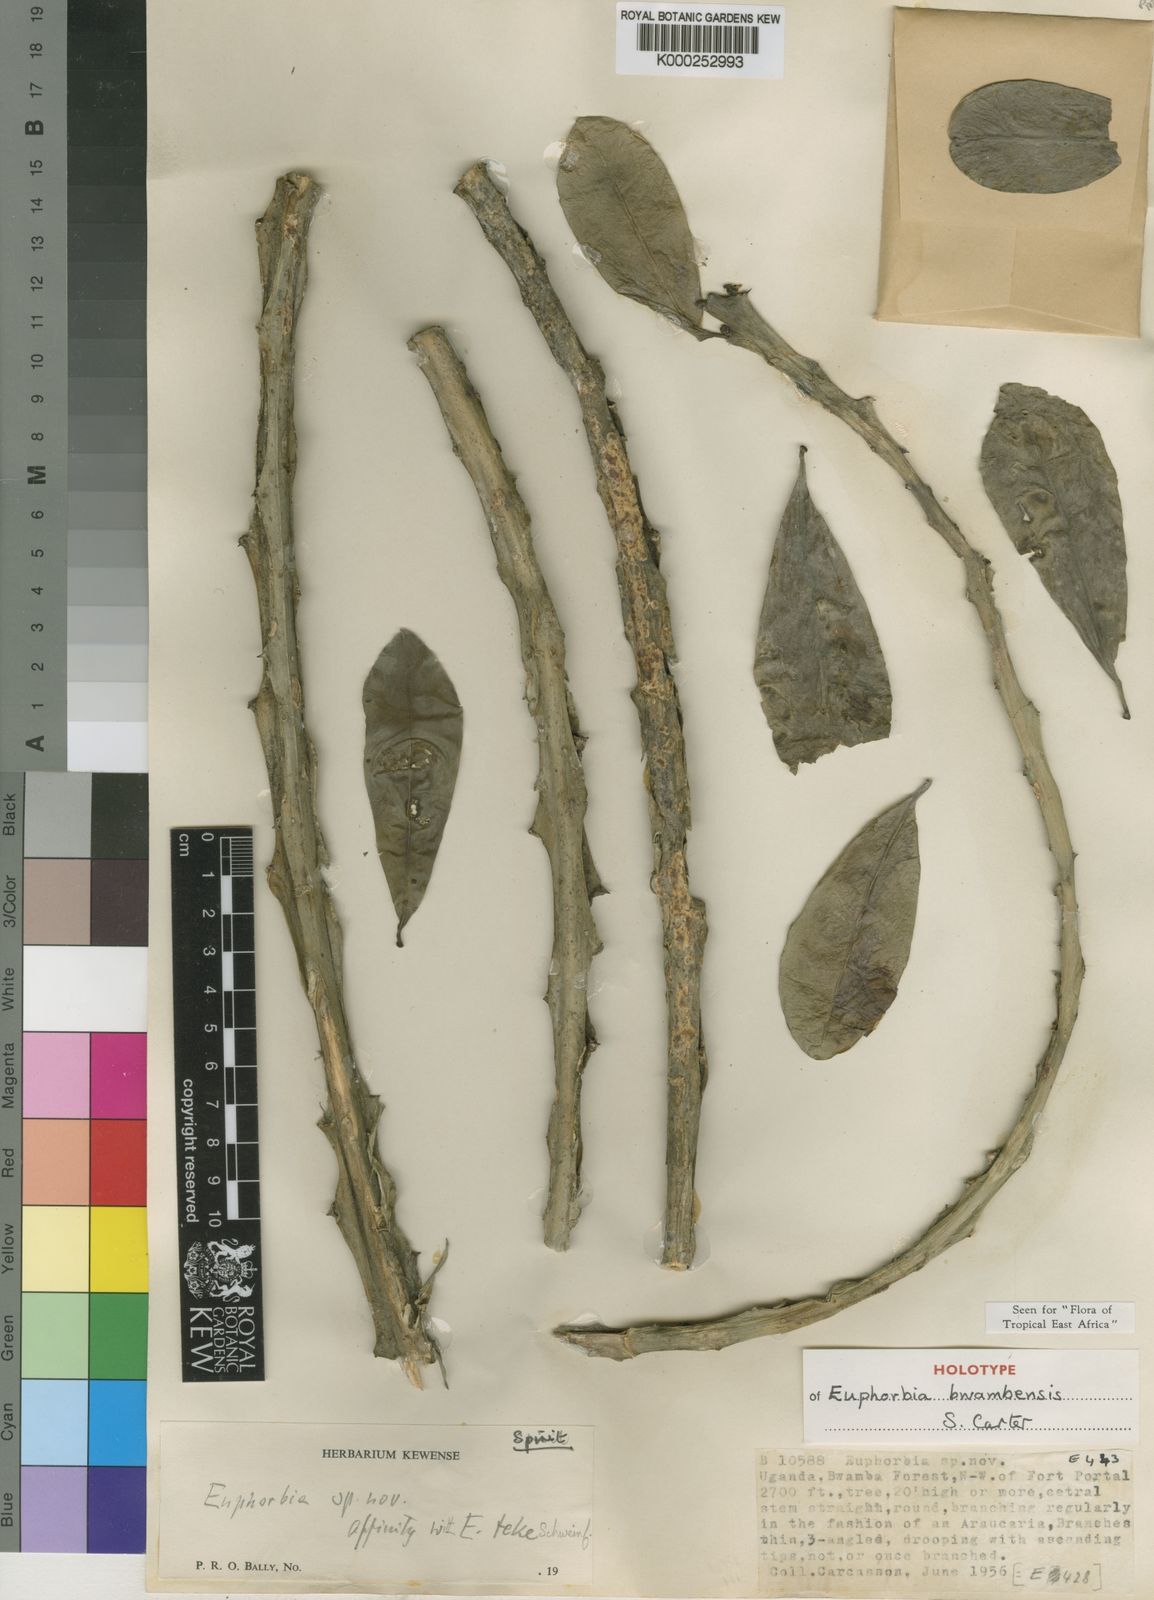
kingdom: Plantae
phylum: Tracheophyta
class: Magnoliopsida
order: Malpighiales
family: Euphorbiaceae
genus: Euphorbia
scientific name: Euphorbia bwambensis
